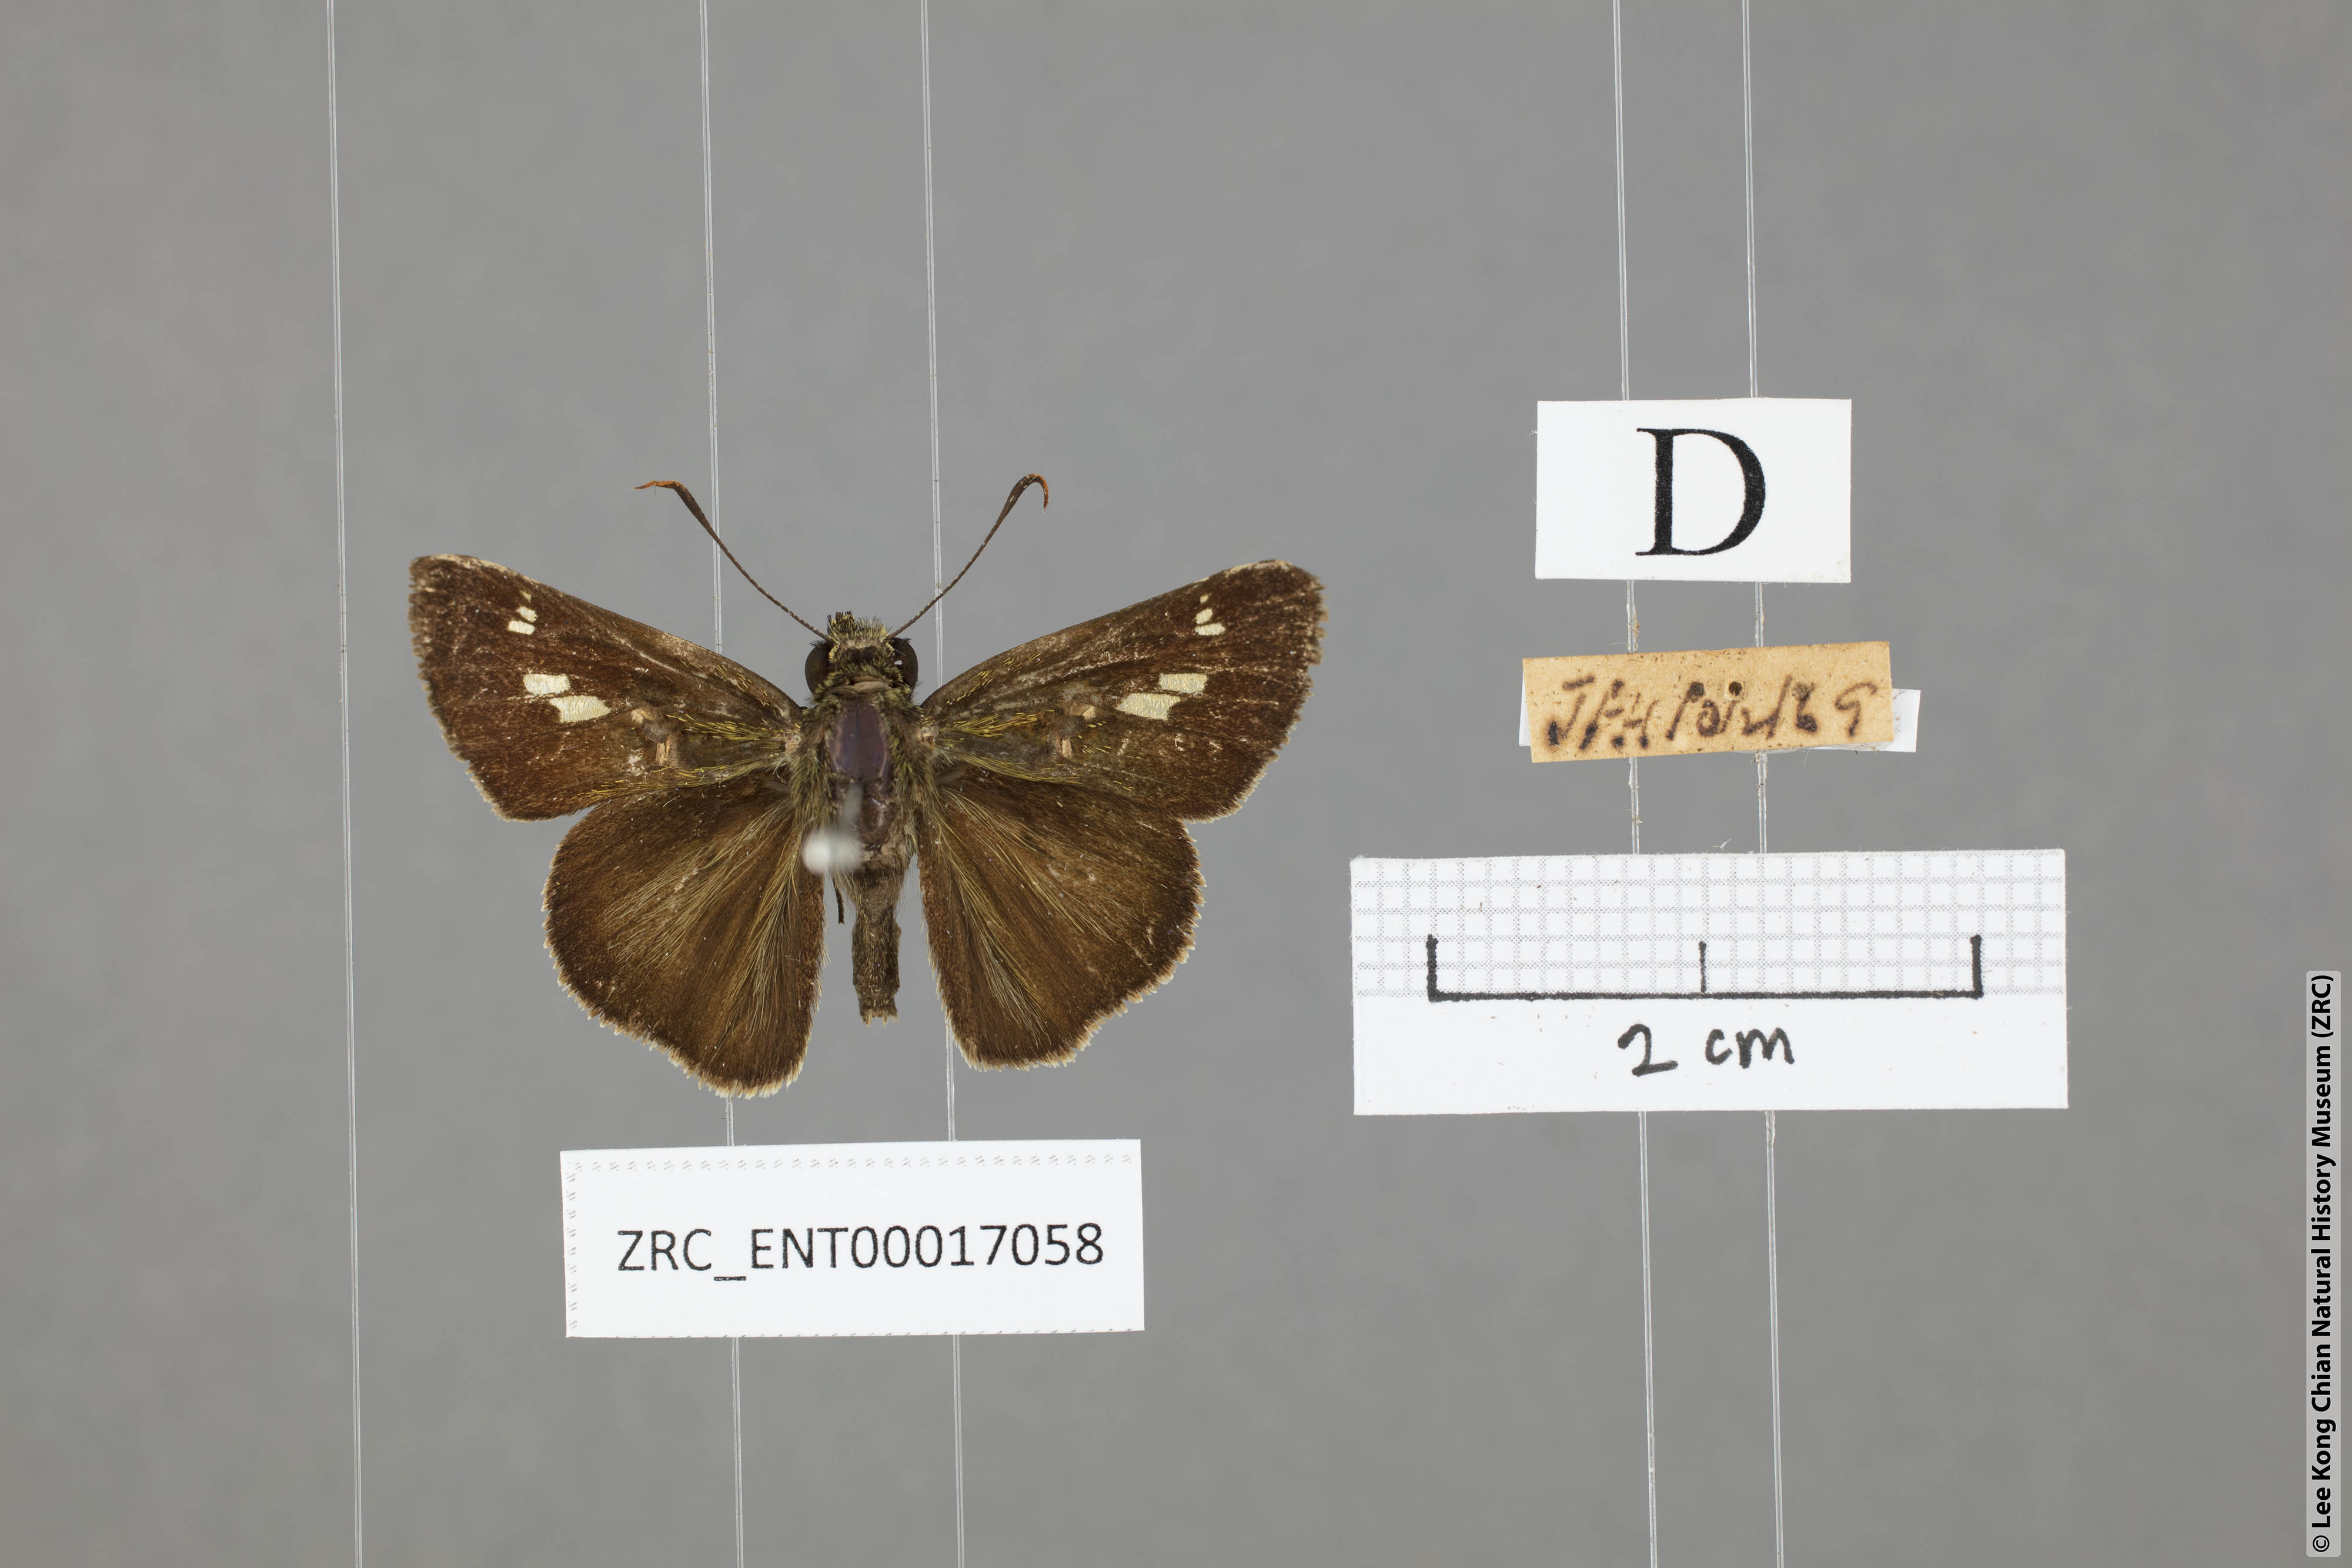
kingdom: Animalia
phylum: Arthropoda
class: Insecta
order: Lepidoptera
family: Hesperiidae
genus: Halpe
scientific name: Halpe sikkima
